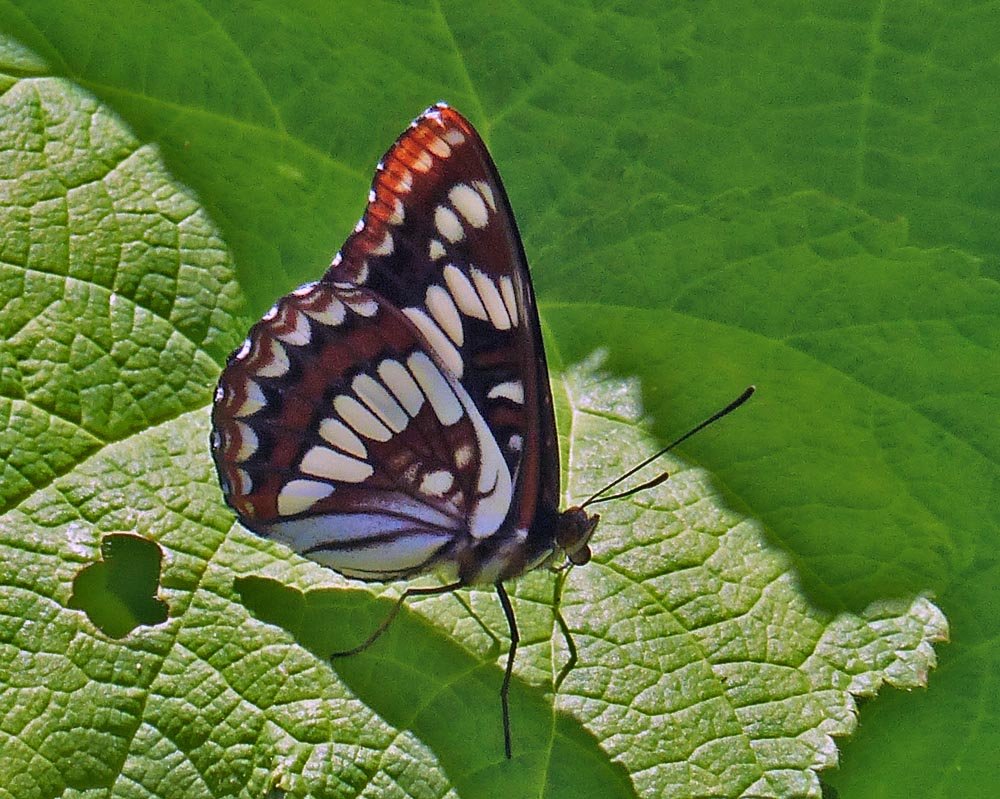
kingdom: Animalia
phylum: Arthropoda
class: Insecta
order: Lepidoptera
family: Nymphalidae
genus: Limenitis
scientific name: Limenitis lorquini
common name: Lorquin's Admiral
